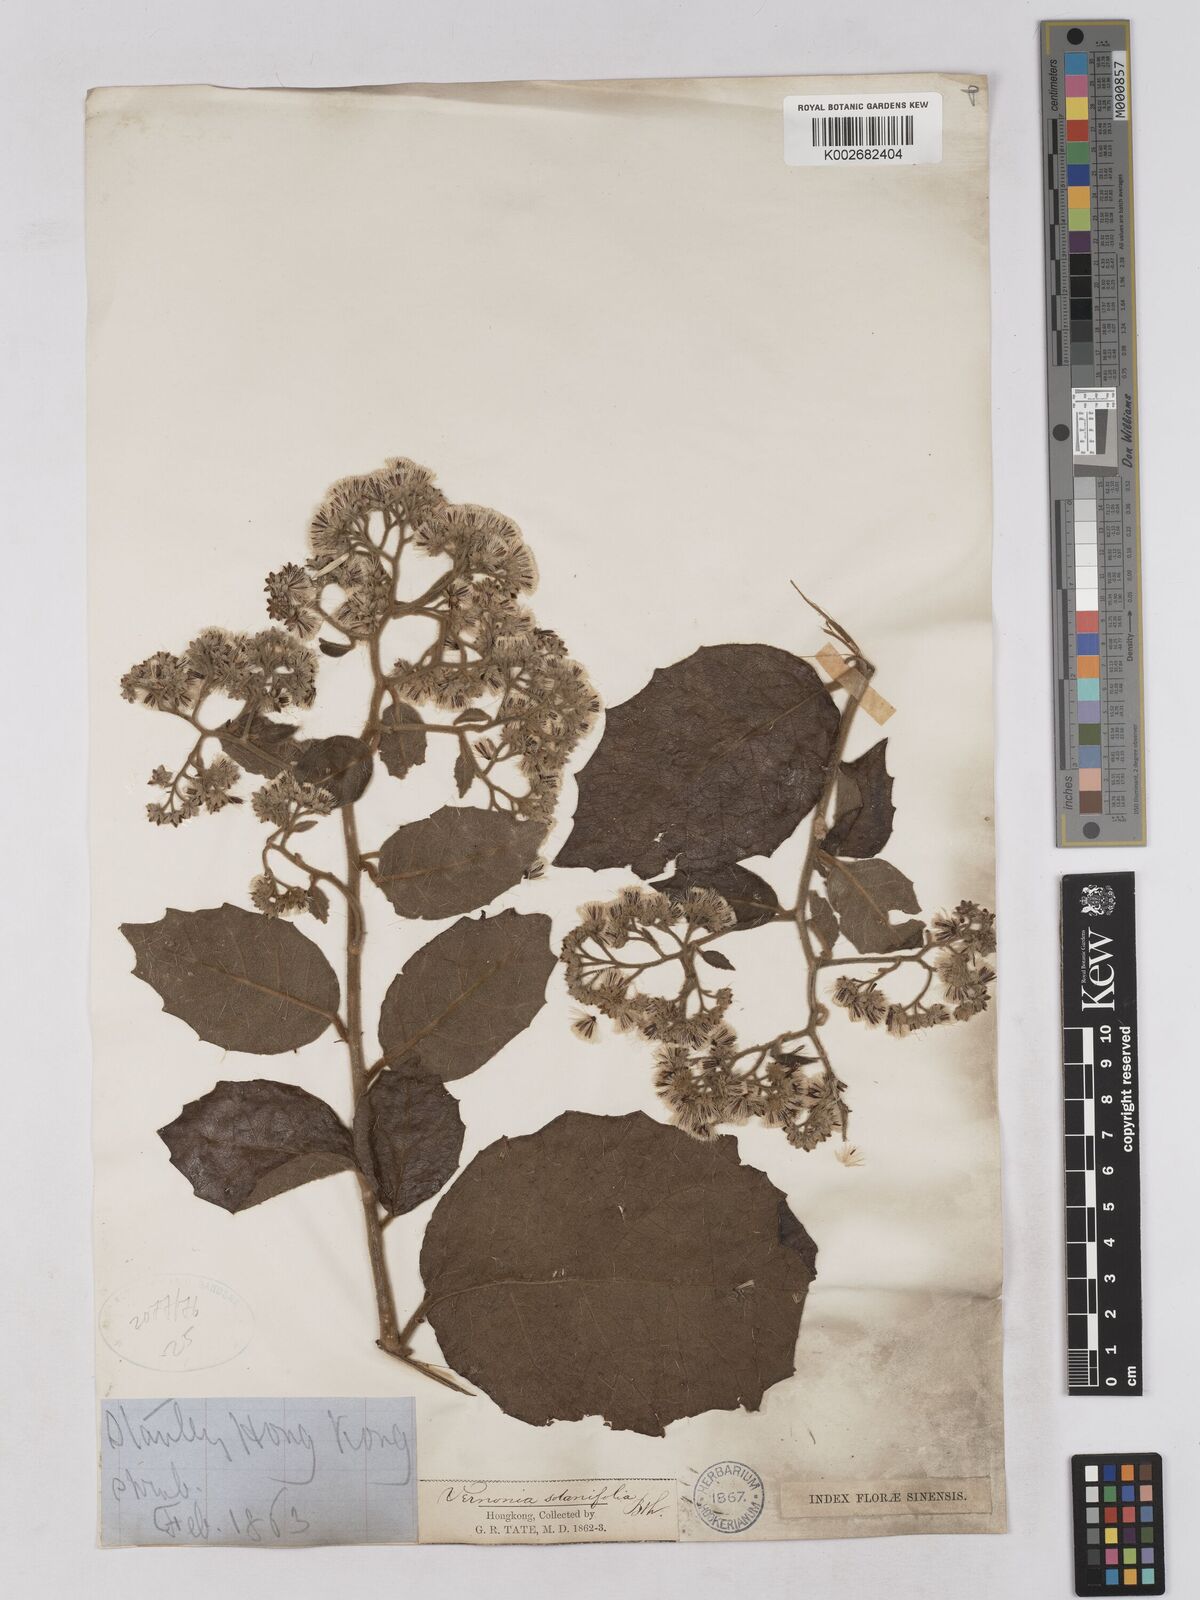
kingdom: Plantae
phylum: Tracheophyta
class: Magnoliopsida
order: Asterales
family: Asteraceae
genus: Strobocalyx
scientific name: Strobocalyx solanifolia
